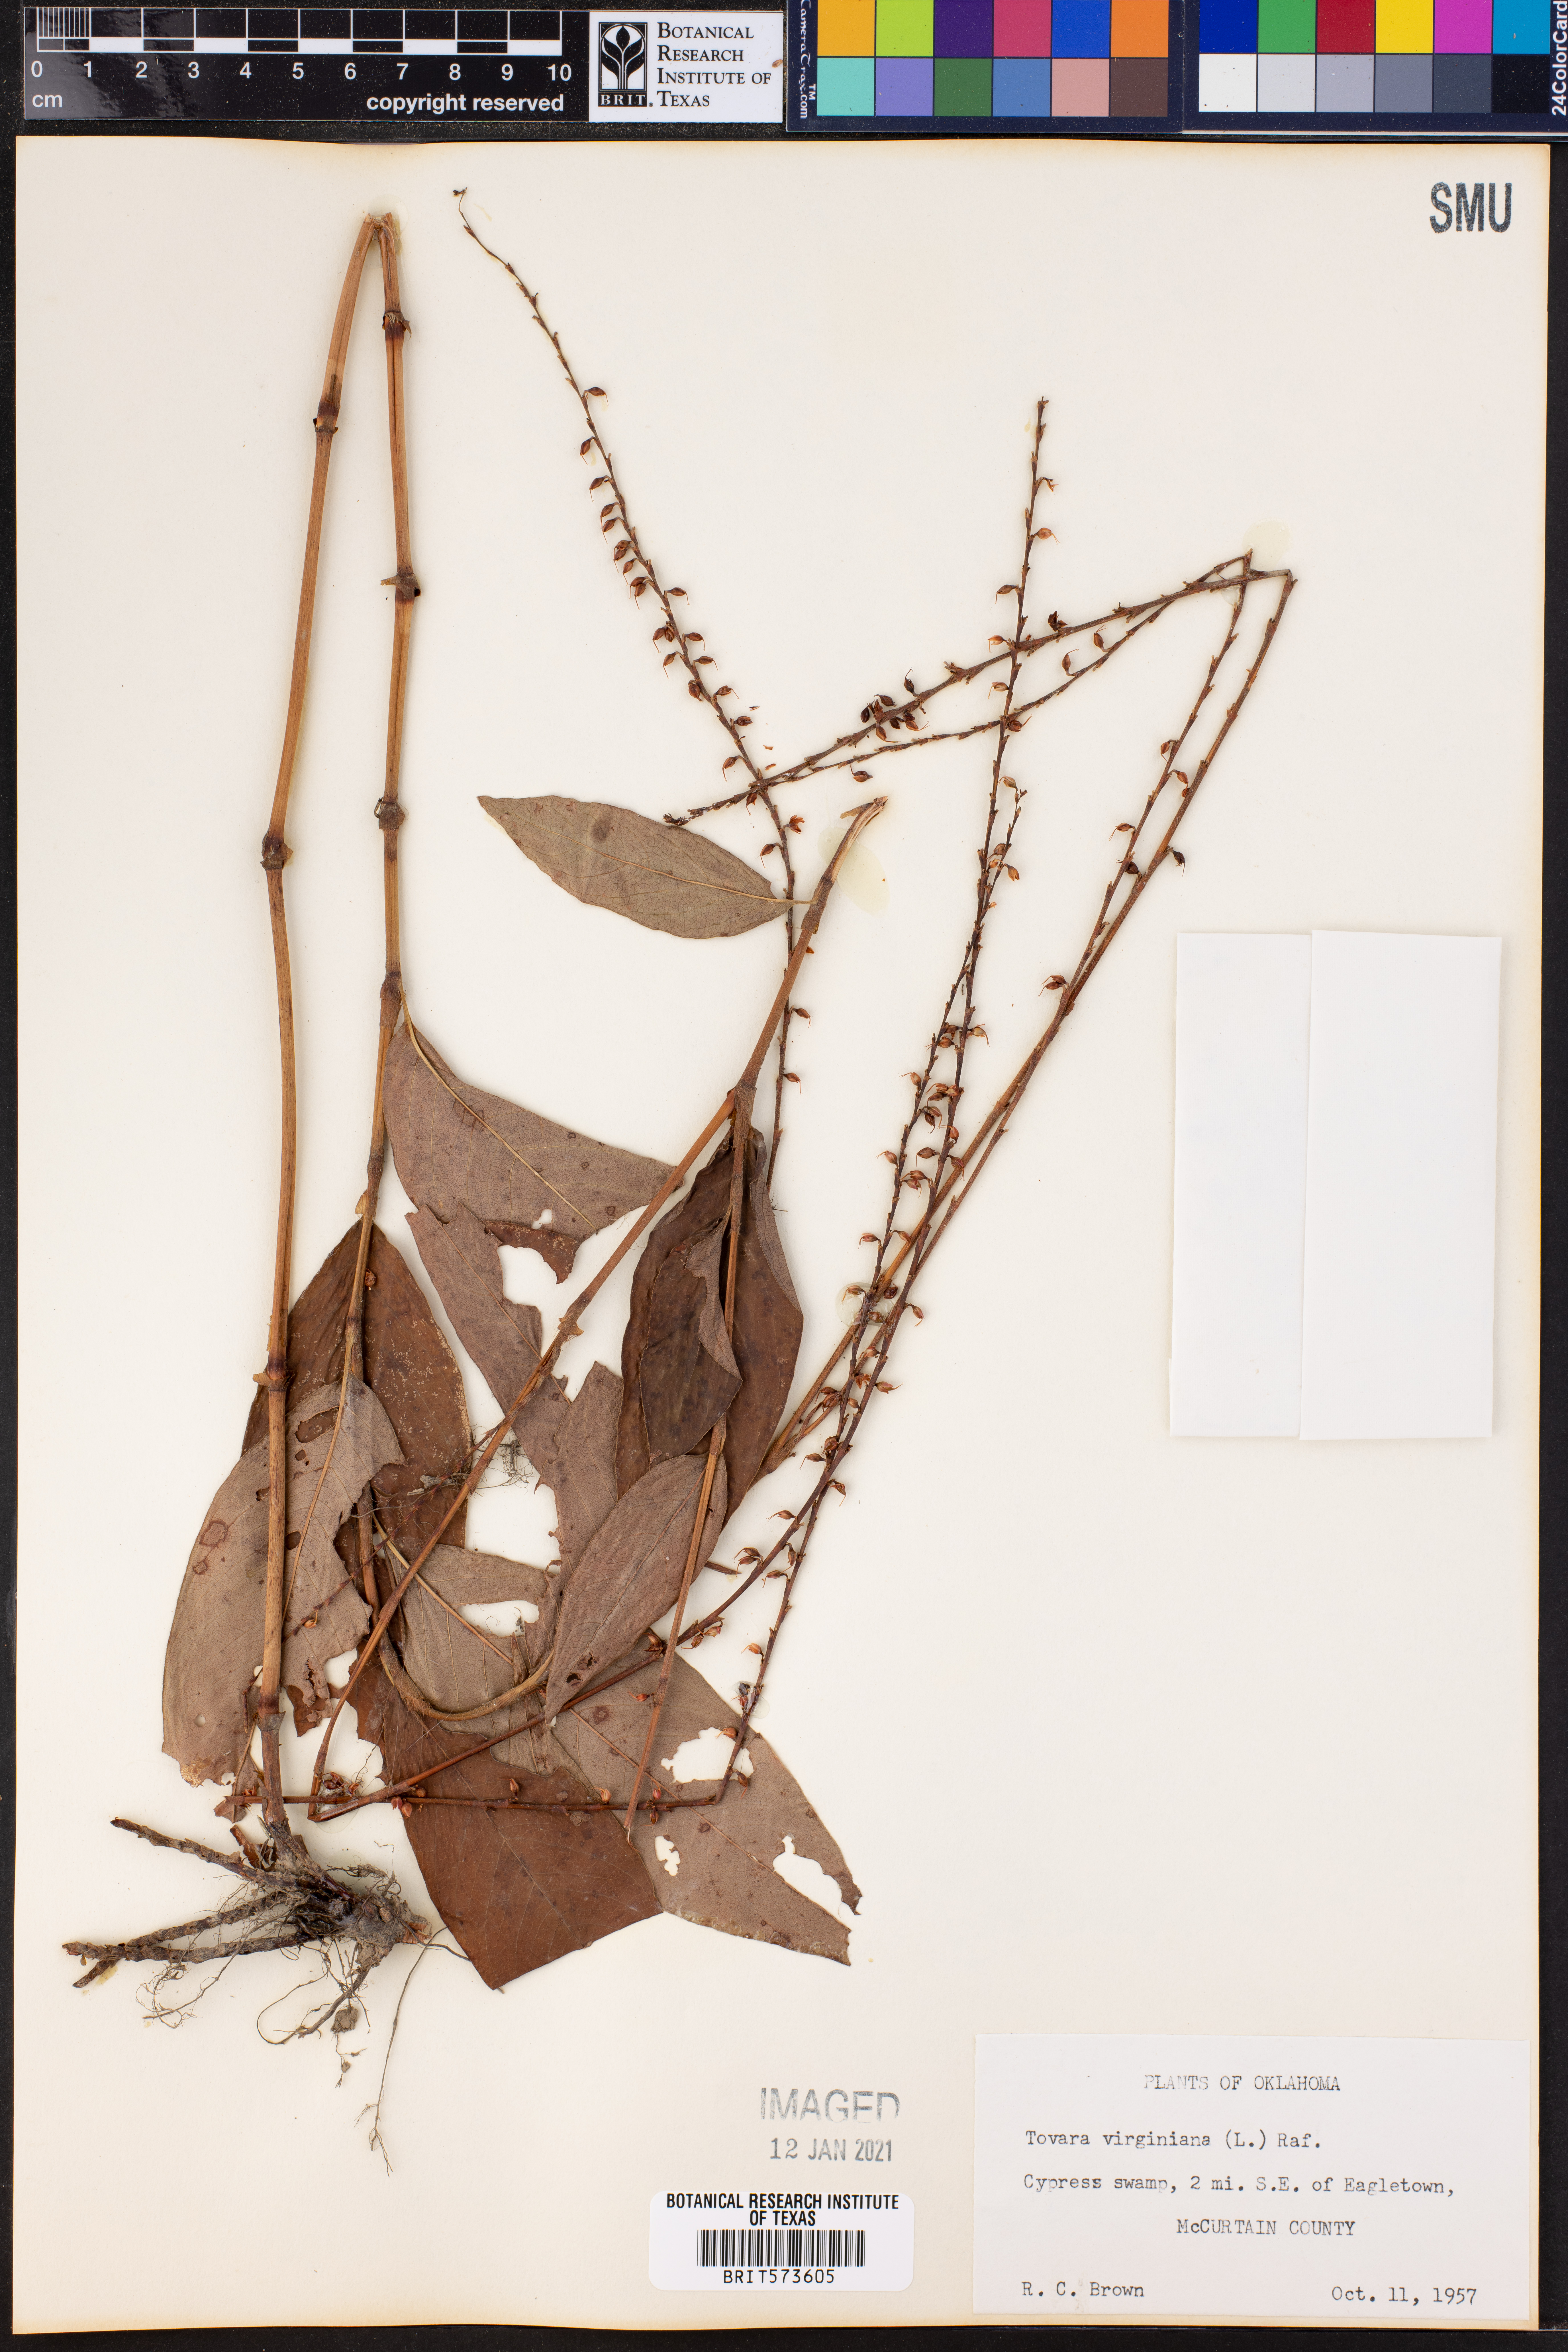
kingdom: Plantae
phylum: Tracheophyta
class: Magnoliopsida
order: Caryophyllales
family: Polygonaceae
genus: Persicaria
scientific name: Persicaria virginiana
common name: Jumpseed
